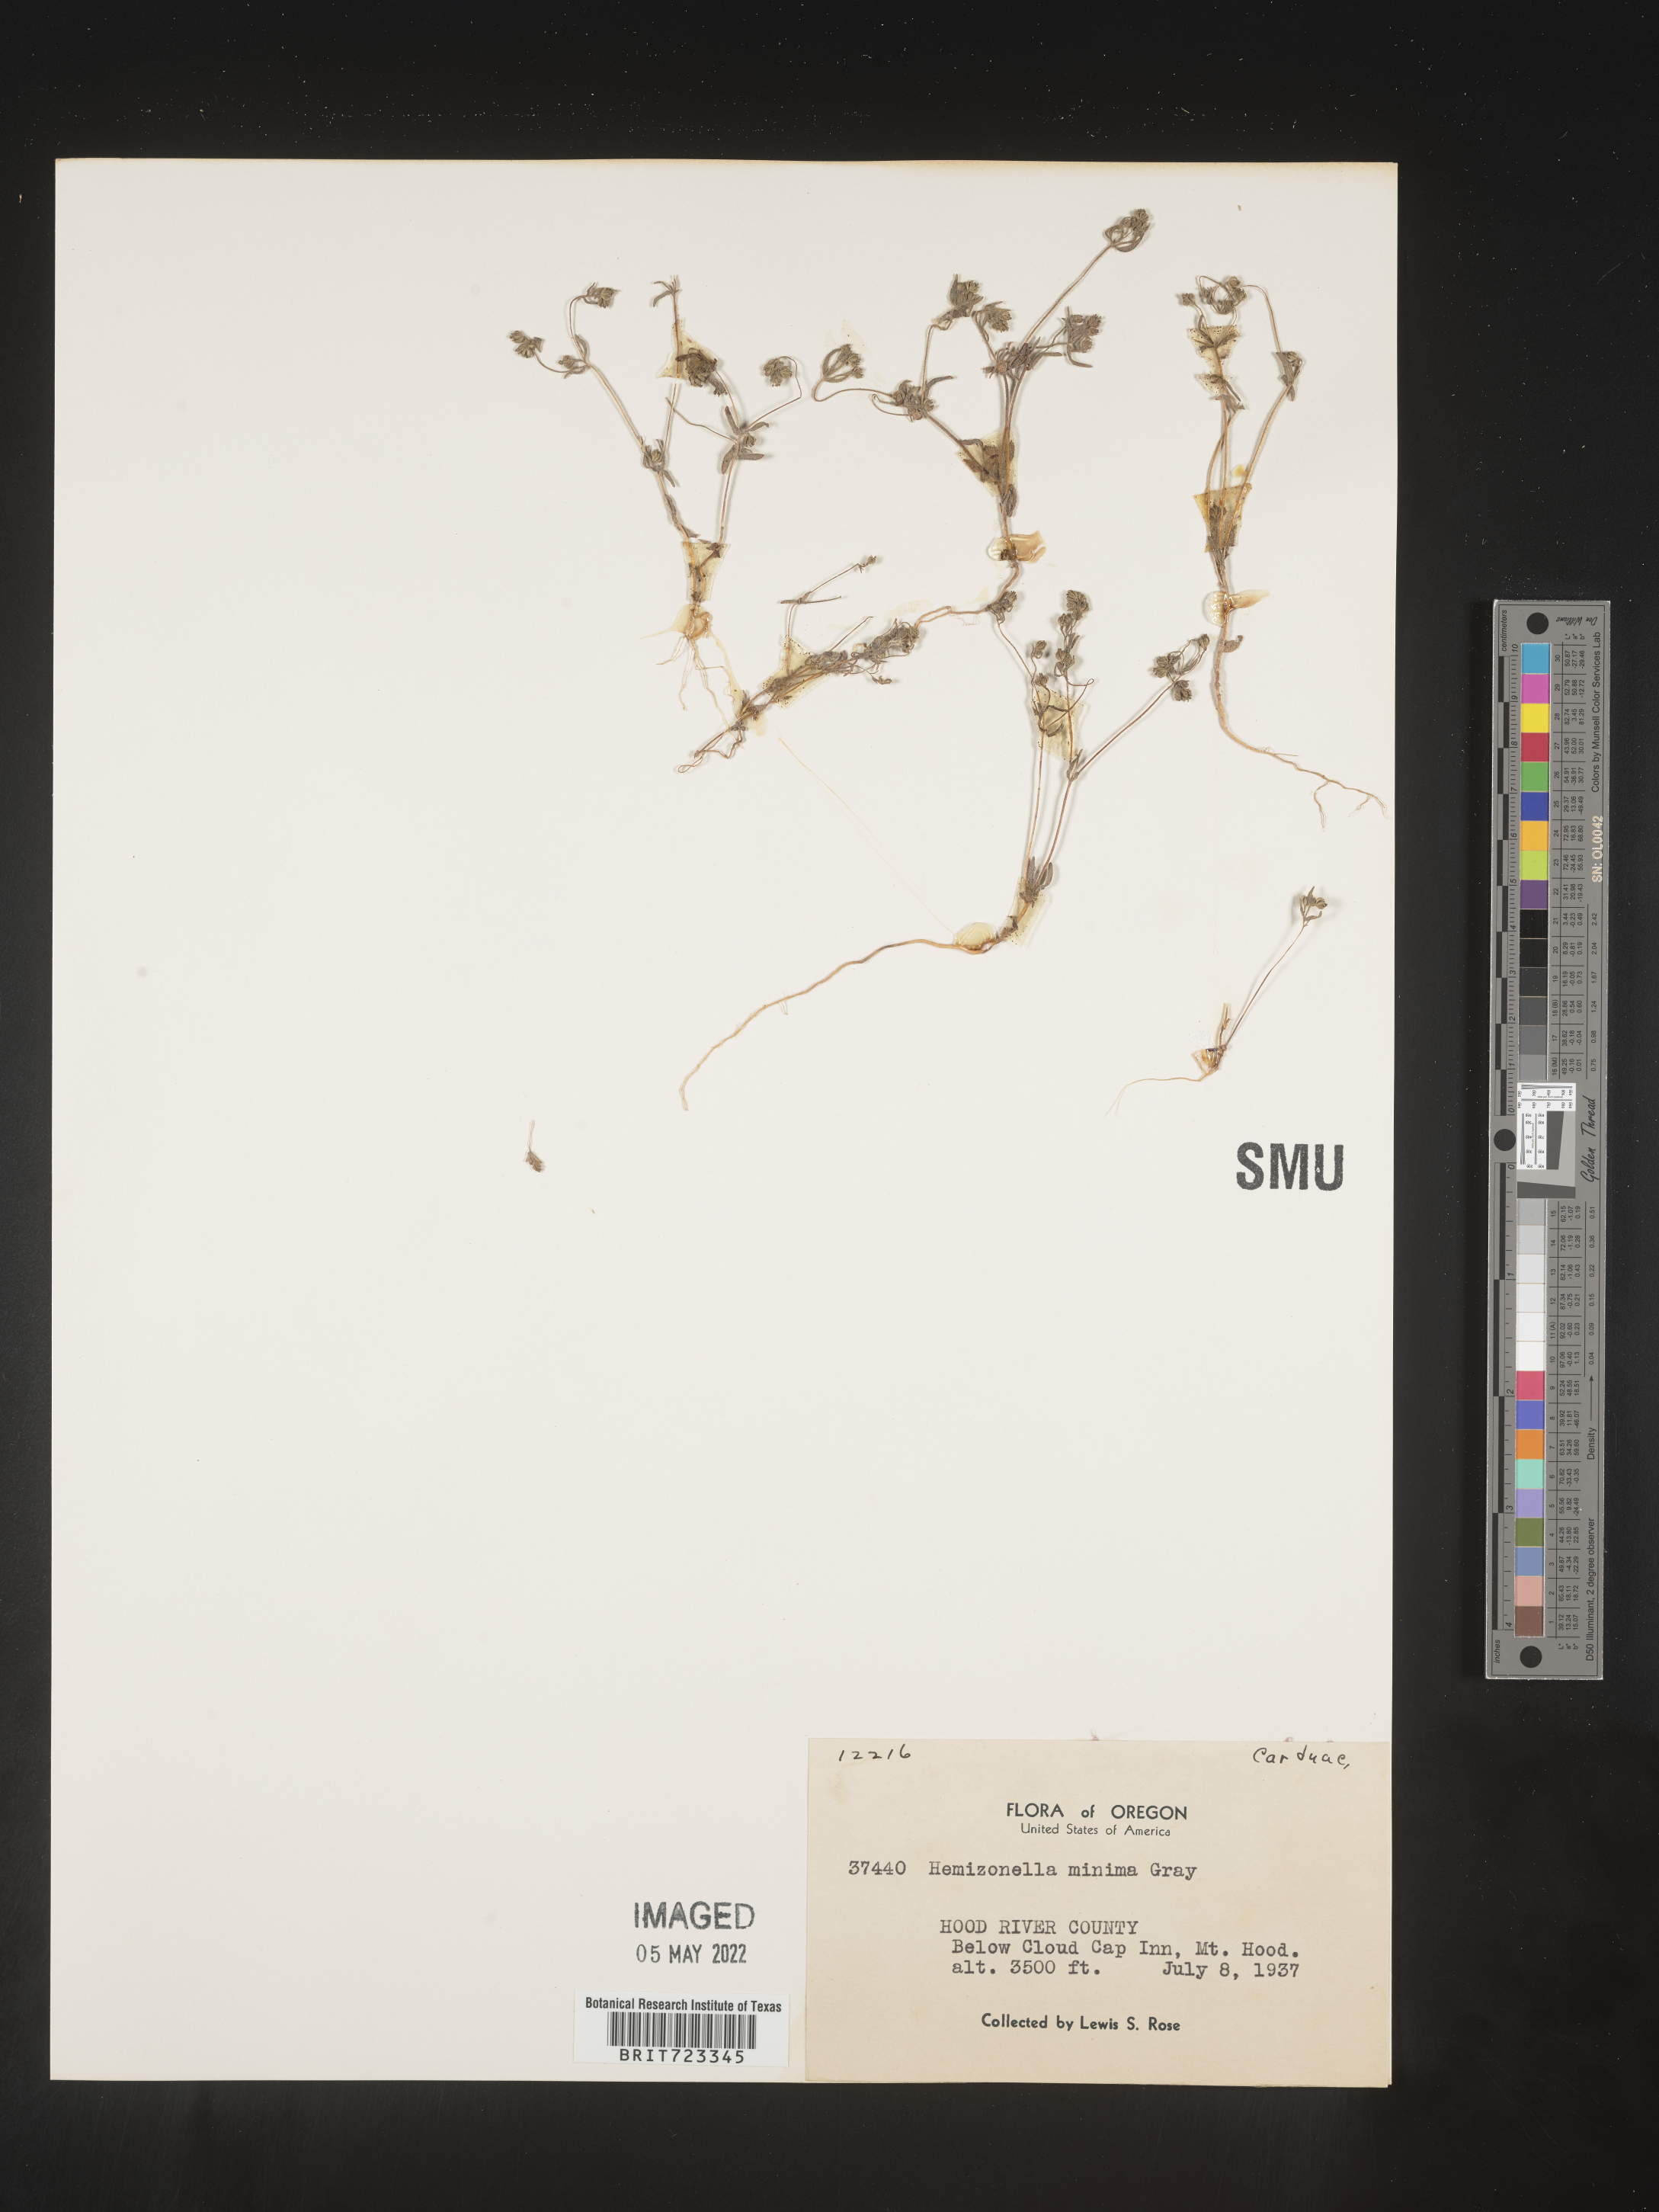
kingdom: Plantae
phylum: Tracheophyta
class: Magnoliopsida
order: Asterales
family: Asteraceae
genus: Hemizonella
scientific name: Hemizonella
